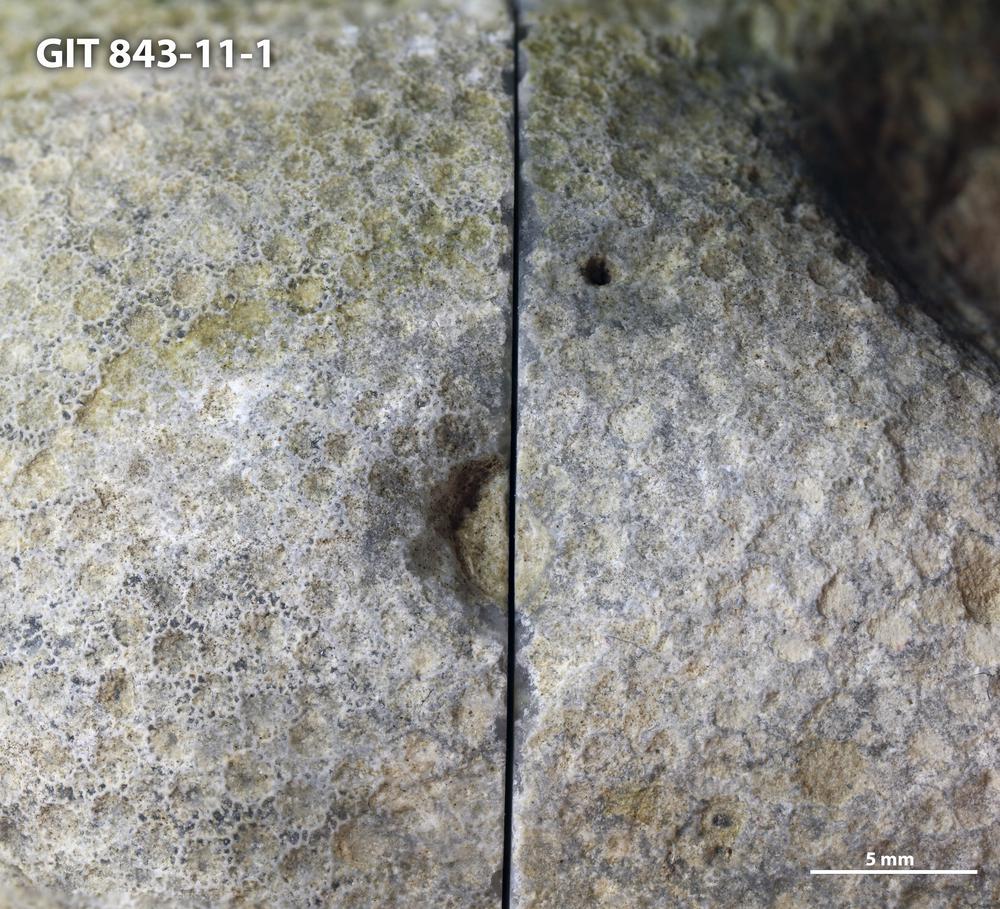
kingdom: Animalia
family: Cornulitidae
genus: Cornulites
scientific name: Cornulites
